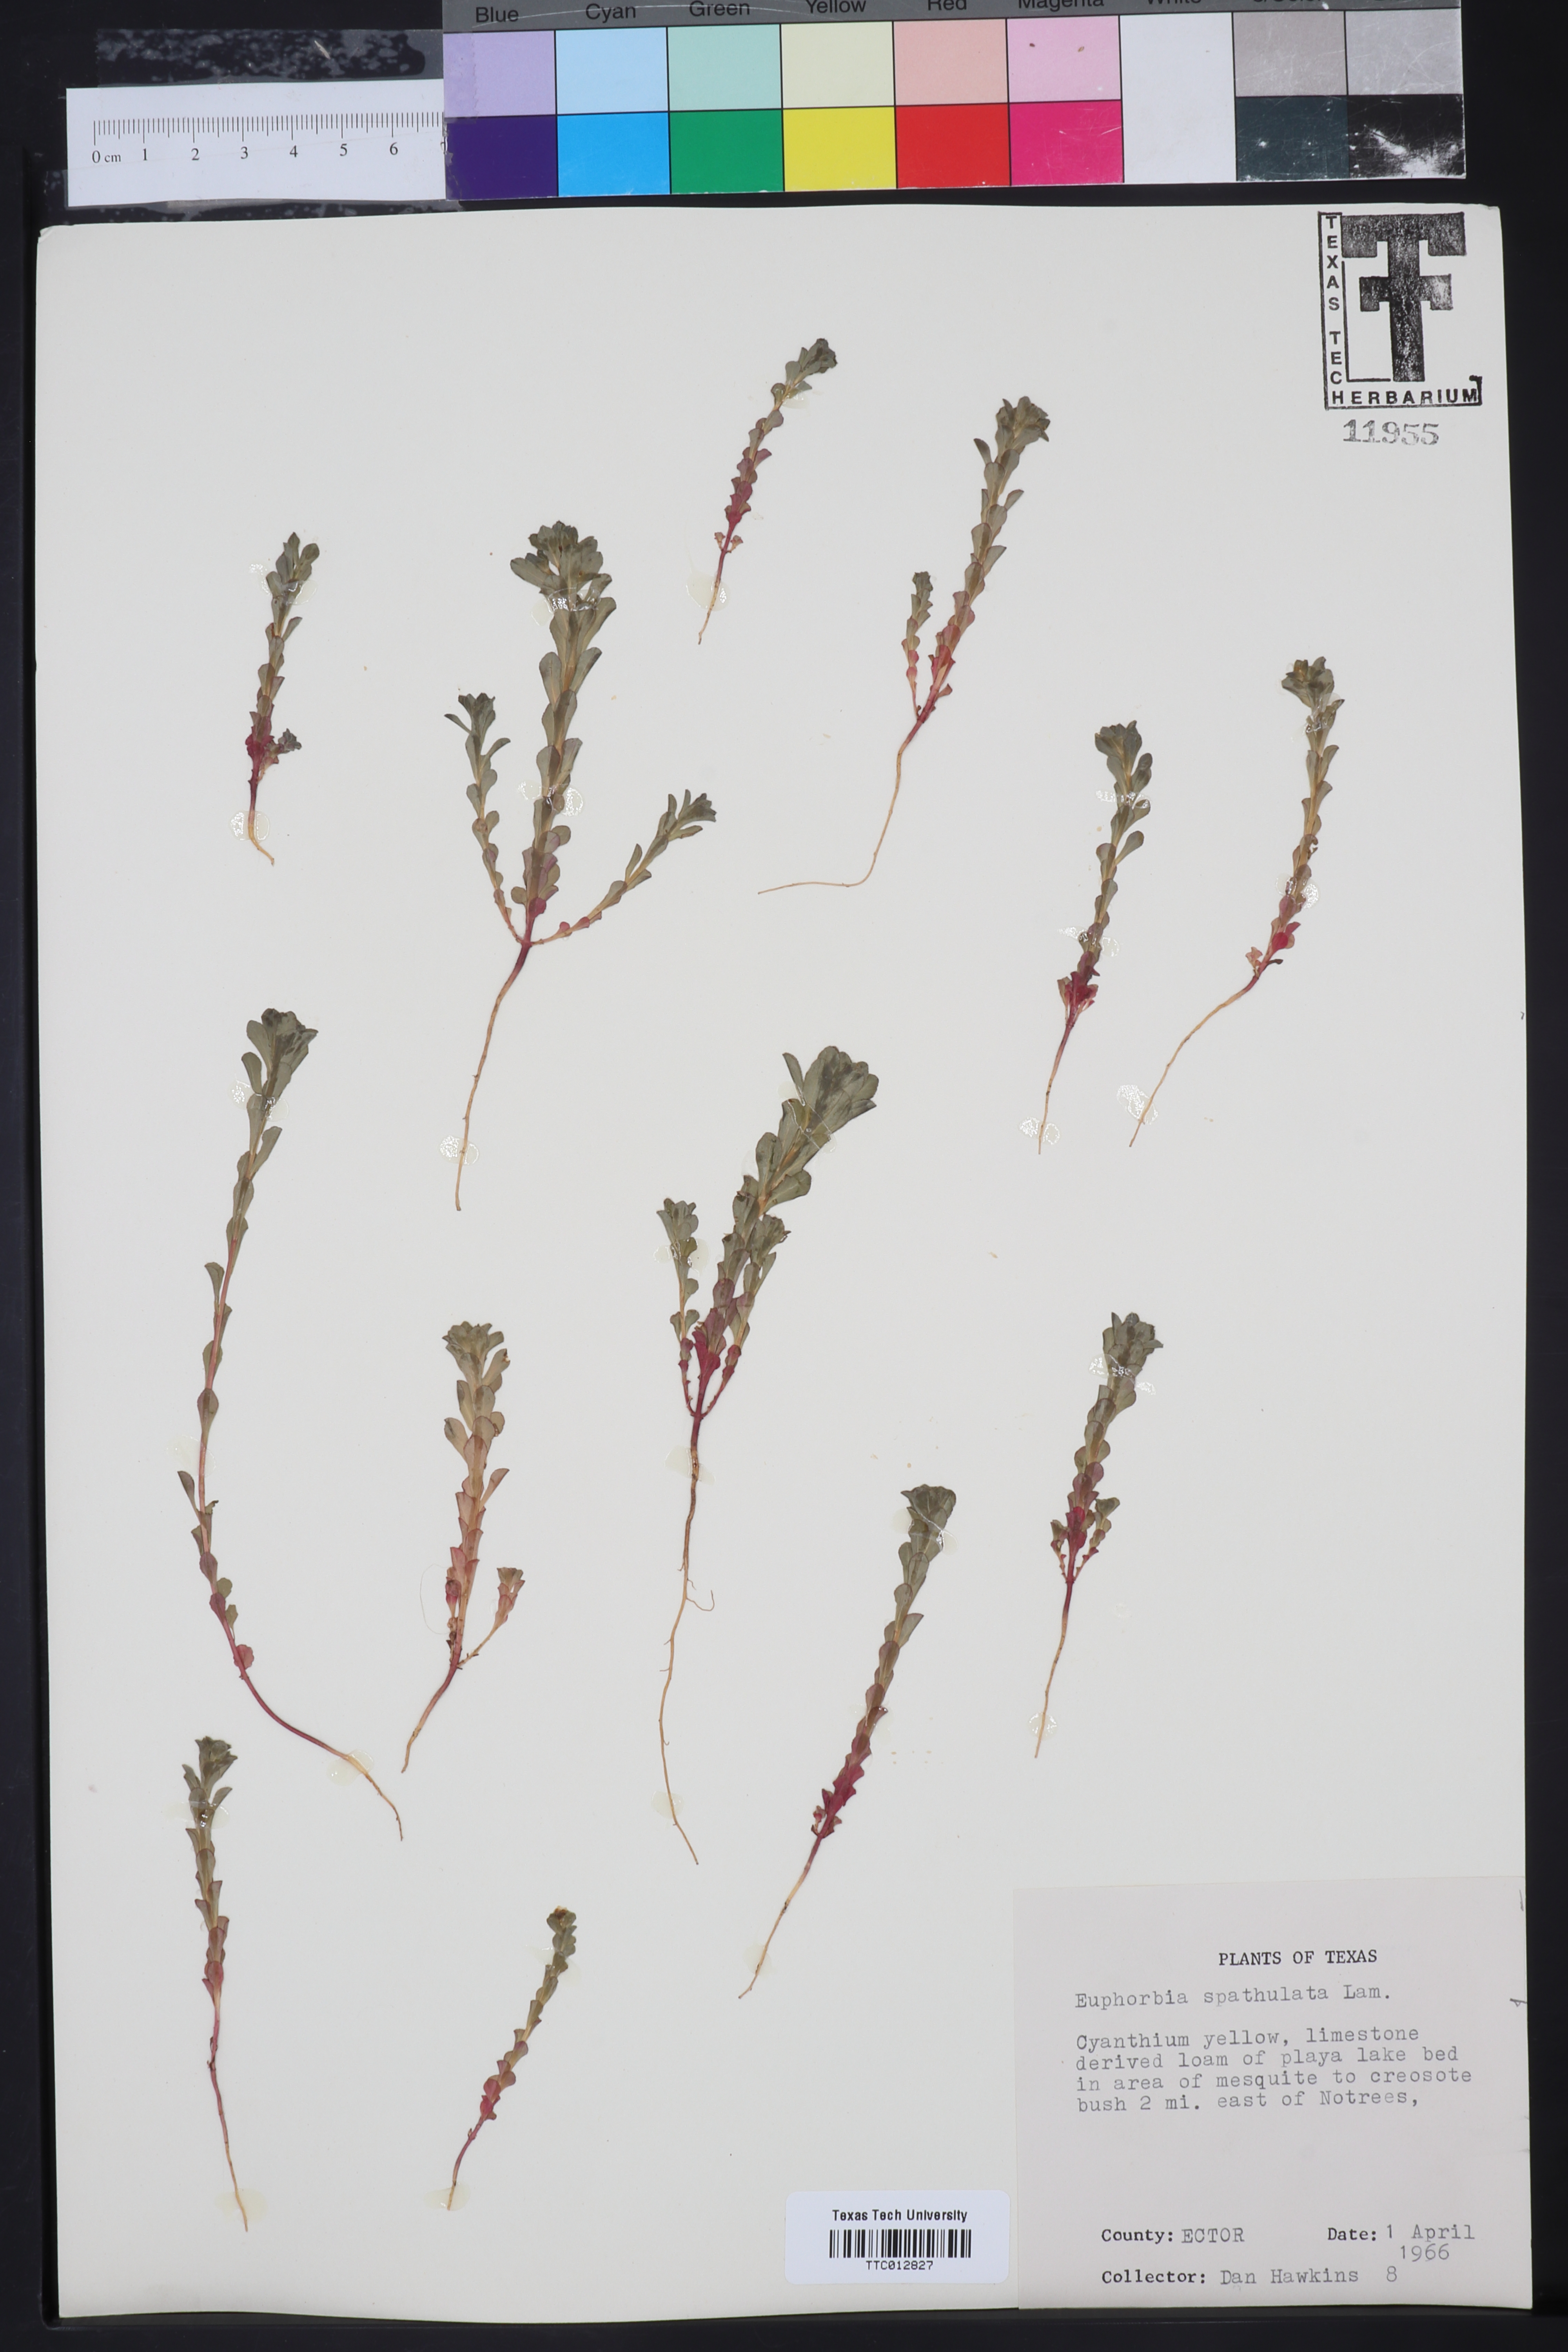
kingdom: Plantae
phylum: Tracheophyta
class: Magnoliopsida
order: Malpighiales
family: Euphorbiaceae
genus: Euphorbia
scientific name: Euphorbia spathulata
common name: Blunt spurge
